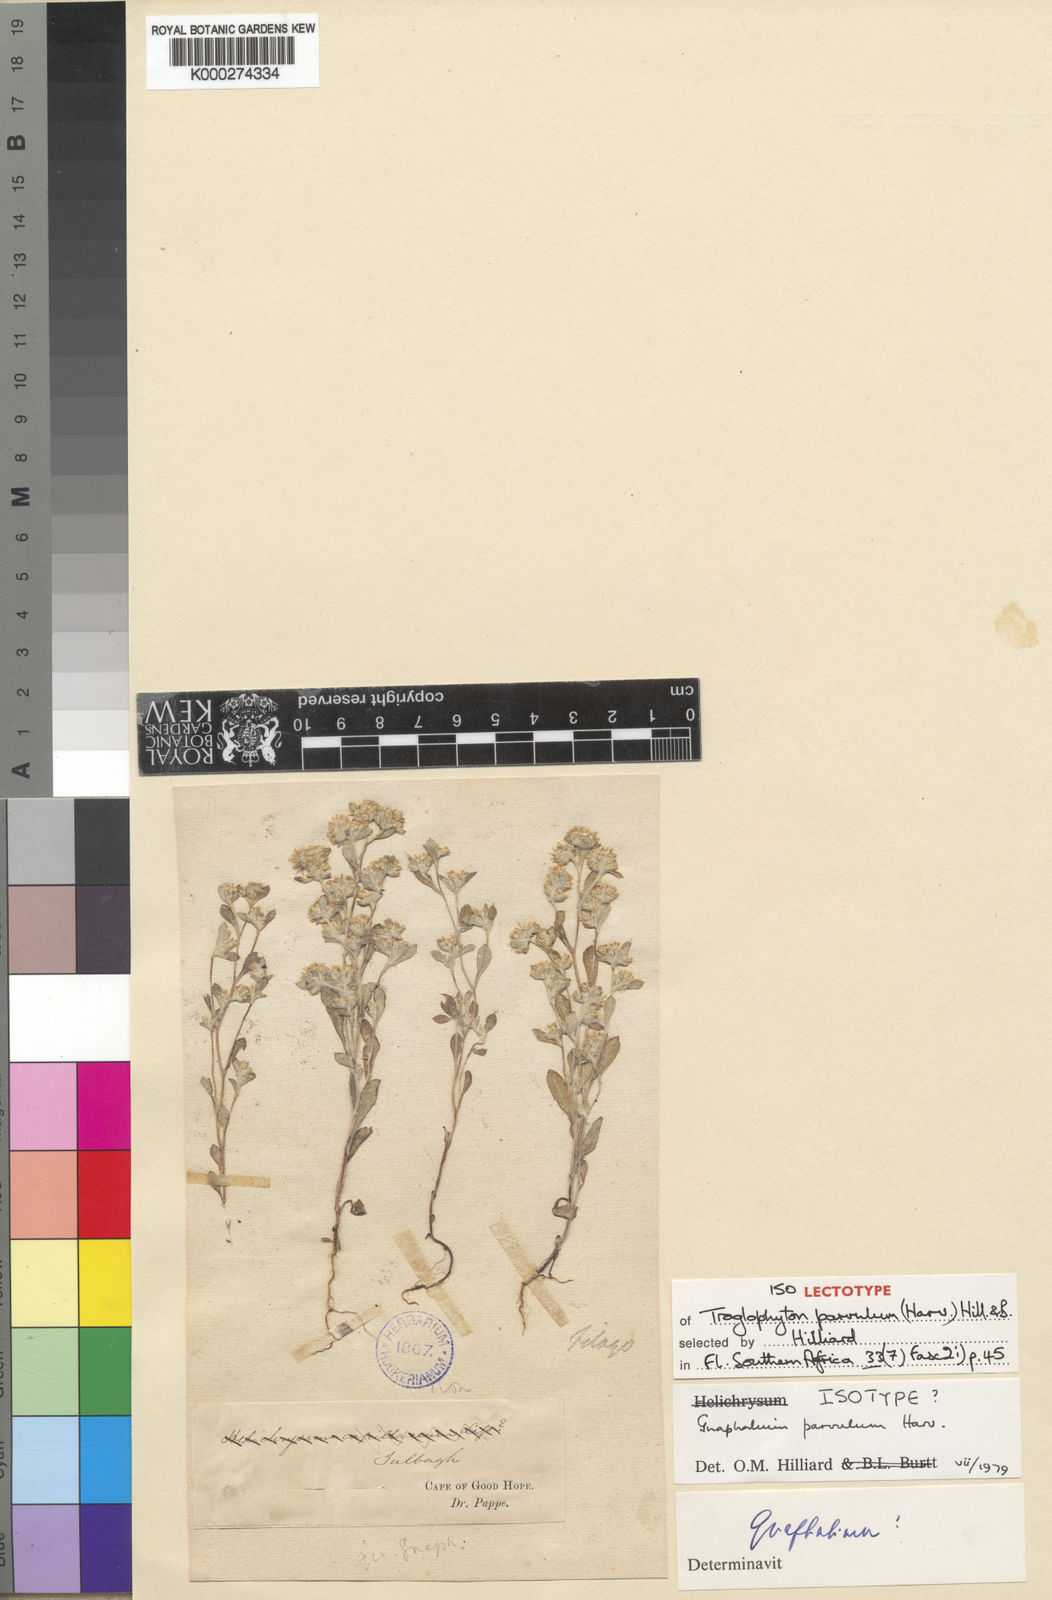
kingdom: Plantae
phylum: Tracheophyta
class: Magnoliopsida
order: Asterales
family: Asteraceae
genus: Troglophyton
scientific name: Troglophyton parvulum
